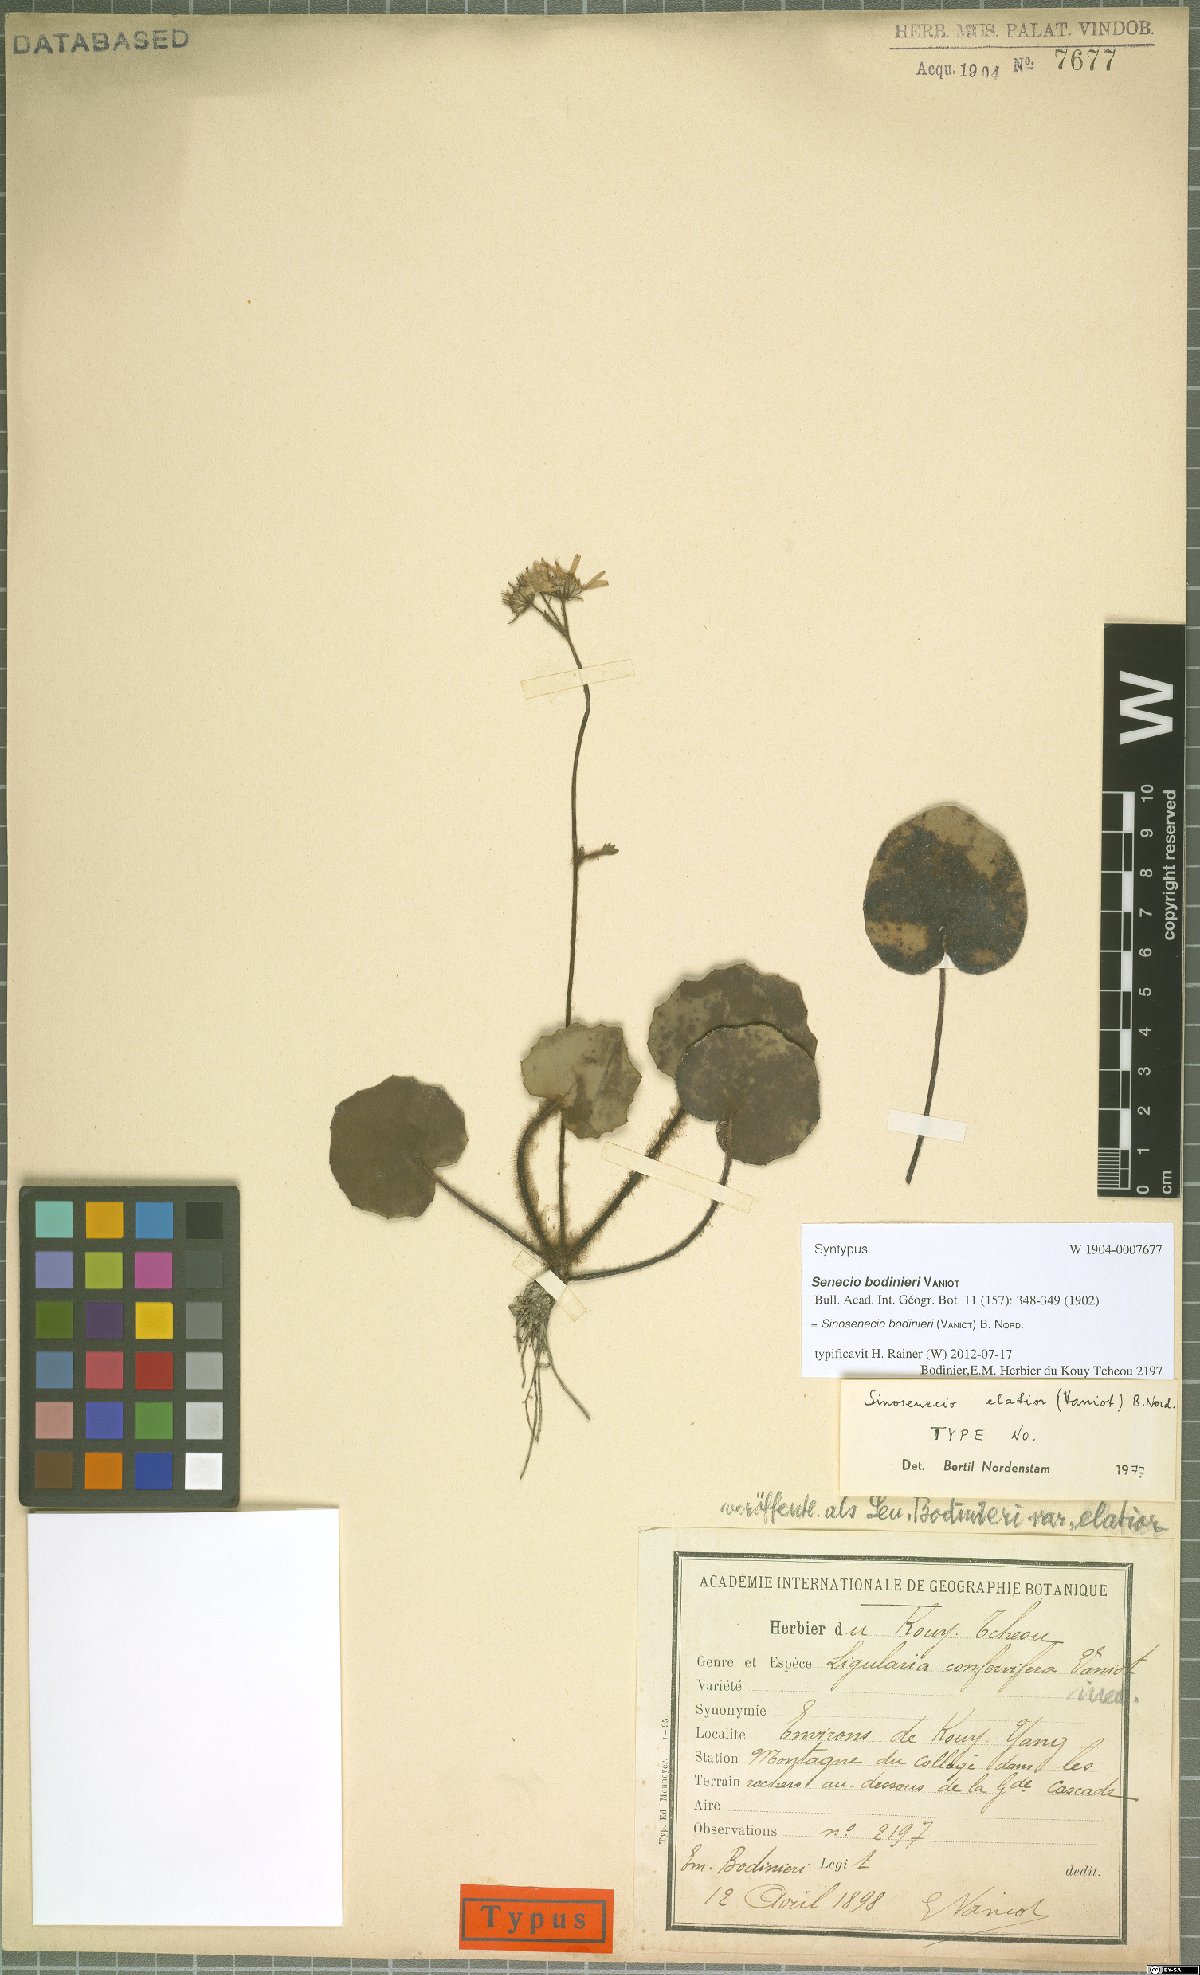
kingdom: Plantae
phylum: Tracheophyta
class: Magnoliopsida
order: Asterales
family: Asteraceae
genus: Sinosenecio
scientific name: Sinosenecio bodinieri
